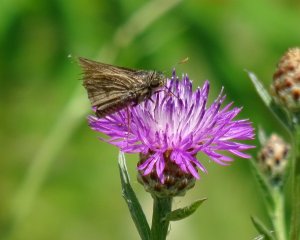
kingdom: Animalia
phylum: Arthropoda
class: Insecta
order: Lepidoptera
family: Hesperiidae
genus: Euphyes
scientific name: Euphyes vestris
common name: Dun Skipper
